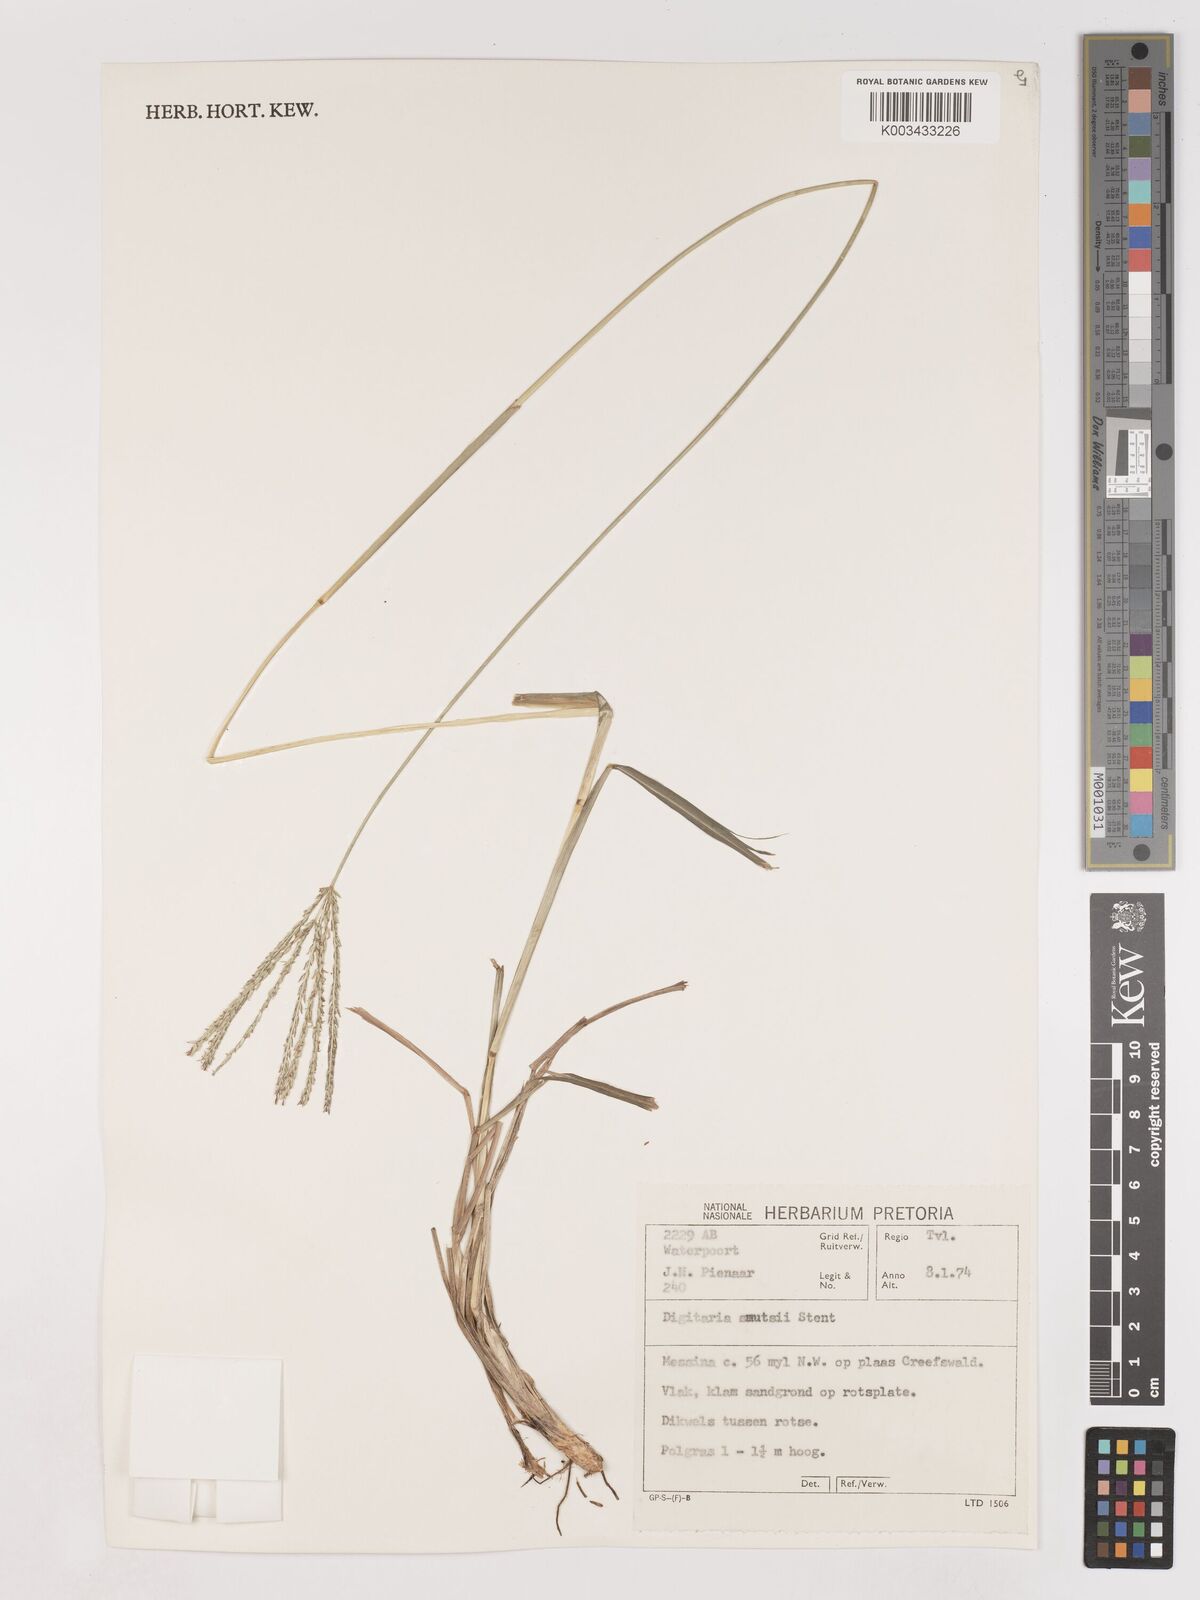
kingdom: Plantae
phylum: Tracheophyta
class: Liliopsida
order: Poales
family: Poaceae
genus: Digitaria
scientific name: Digitaria eriantha
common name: Digitgrass
